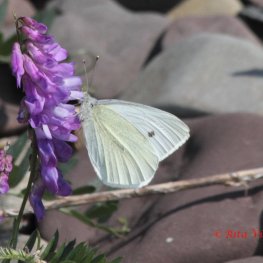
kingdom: Animalia
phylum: Arthropoda
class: Insecta
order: Lepidoptera
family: Pieridae
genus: Pieris
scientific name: Pieris rapae
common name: Cabbage White
